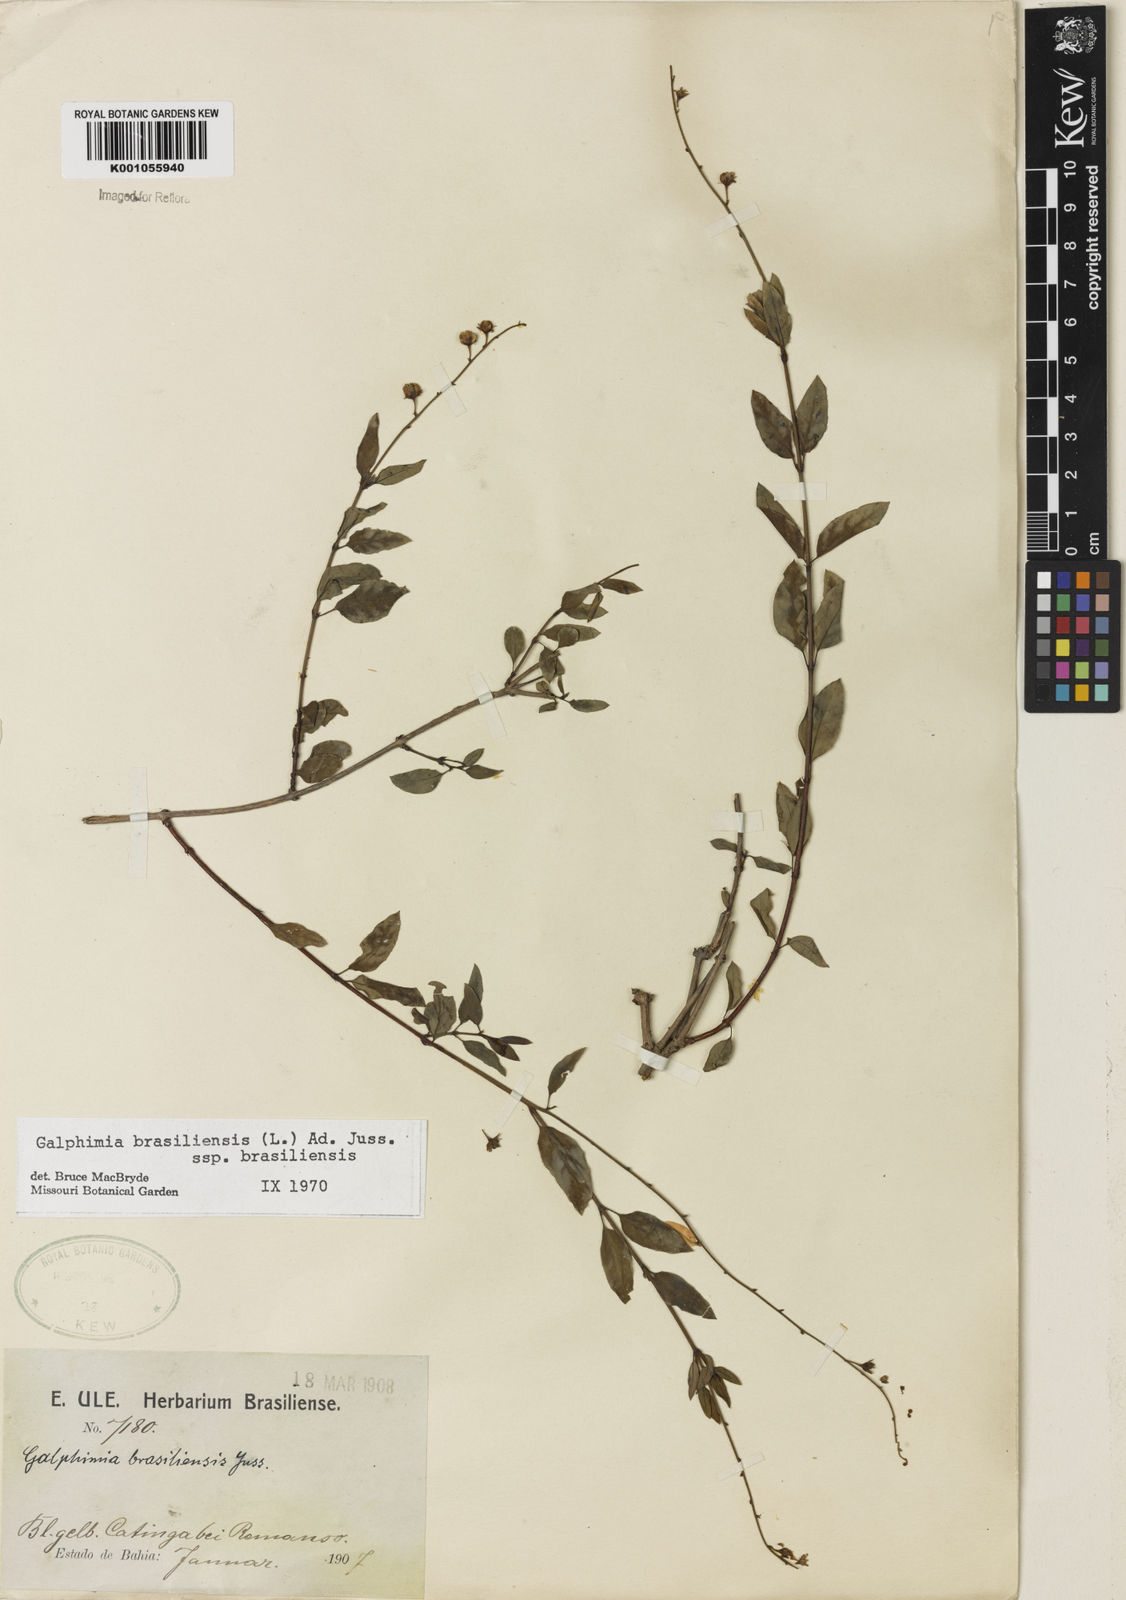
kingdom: Plantae
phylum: Tracheophyta
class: Magnoliopsida
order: Malpighiales
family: Malpighiaceae
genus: Galphimia
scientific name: Galphimia brasiliensis
